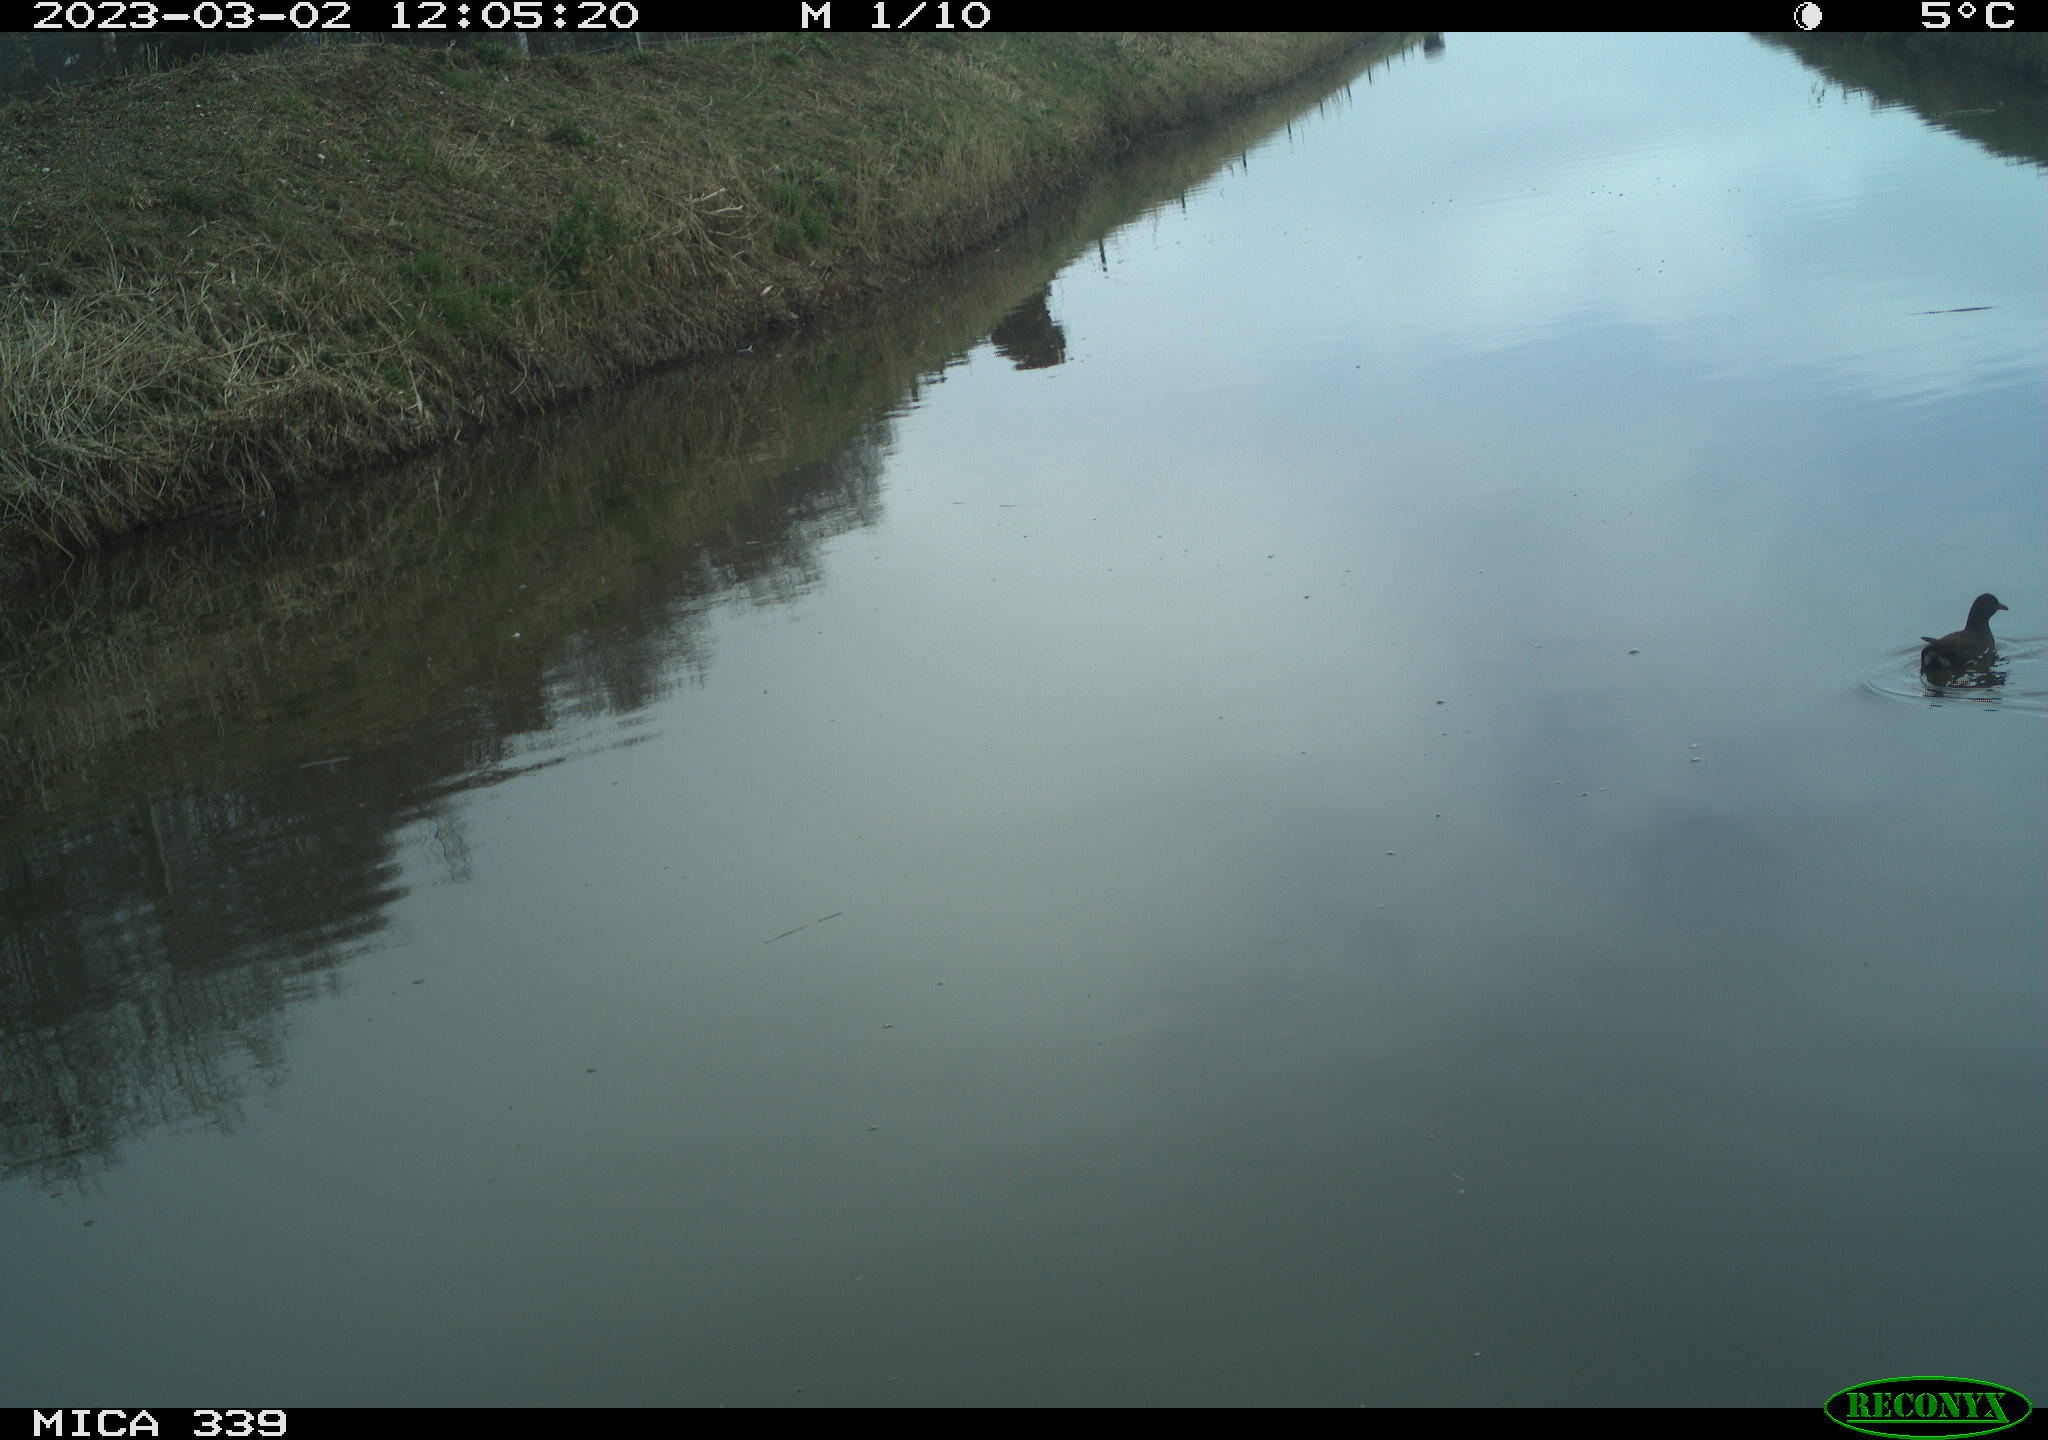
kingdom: Animalia
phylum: Chordata
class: Aves
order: Gruiformes
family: Rallidae
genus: Gallinula
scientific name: Gallinula chloropus
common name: Common moorhen
